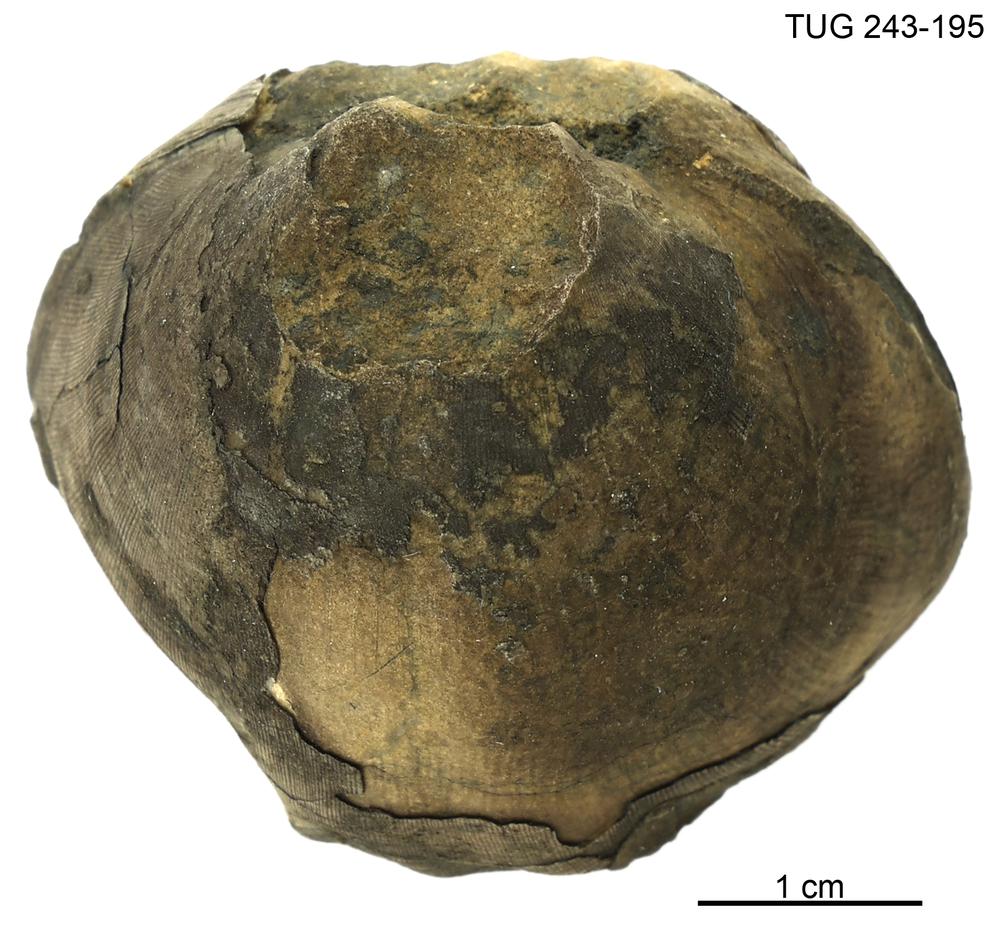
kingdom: Animalia
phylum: Brachiopoda
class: Rhynchonellata
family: Porambonitidae
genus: Porambonites
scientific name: Porambonites
